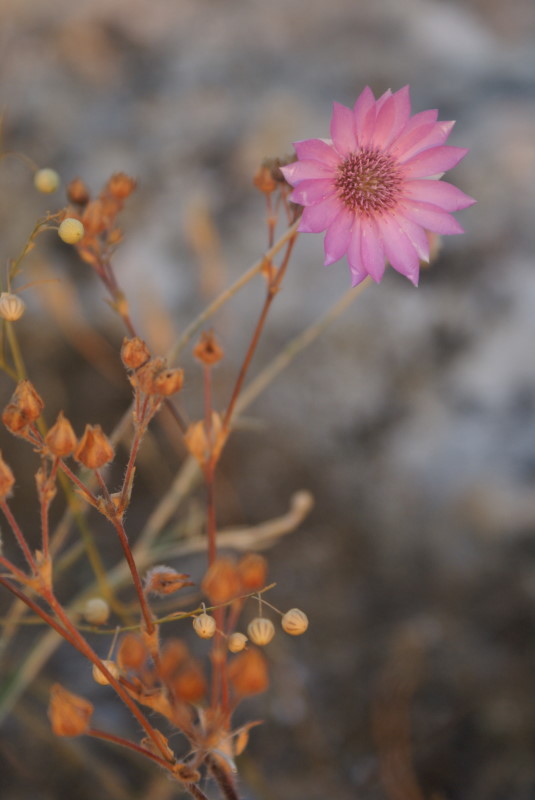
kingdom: Plantae
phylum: Tracheophyta
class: Magnoliopsida
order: Asterales
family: Asteraceae
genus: Xeranthemum
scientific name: Xeranthemum annuum
